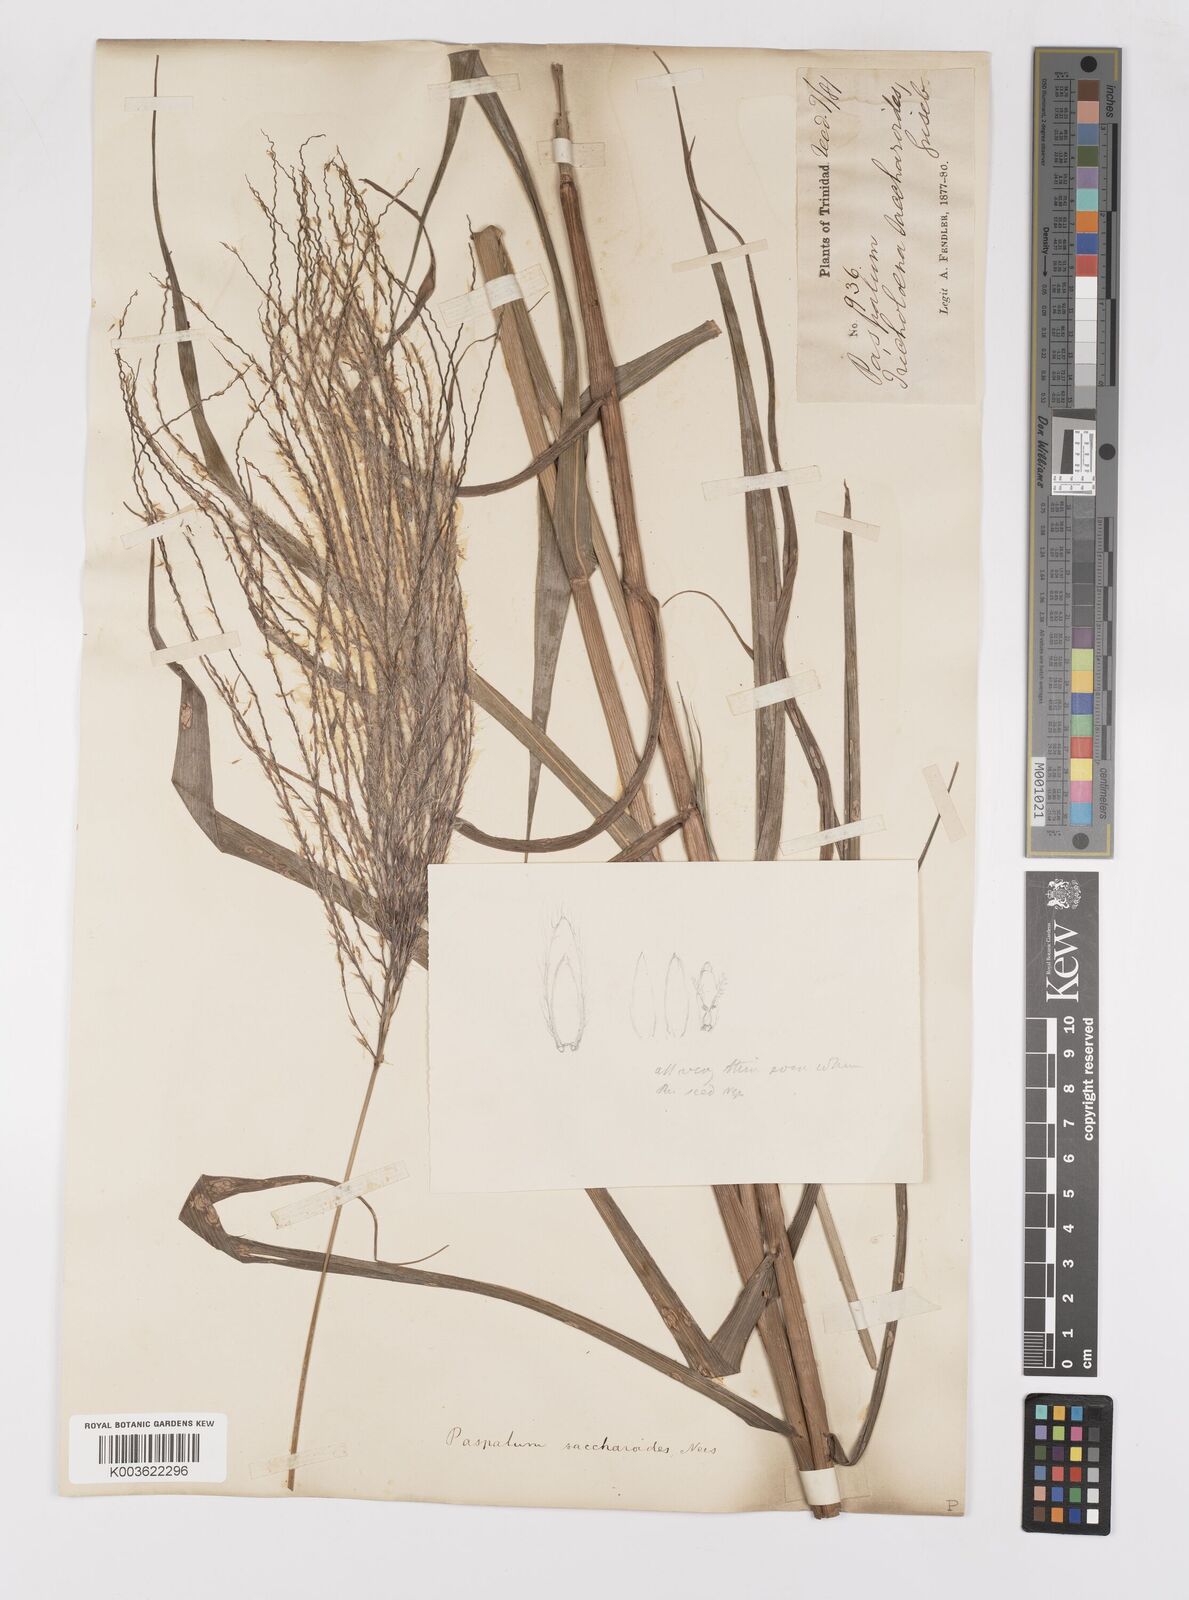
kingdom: Plantae
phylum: Tracheophyta
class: Liliopsida
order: Poales
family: Poaceae
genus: Paspalum
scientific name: Paspalum saccharoides
